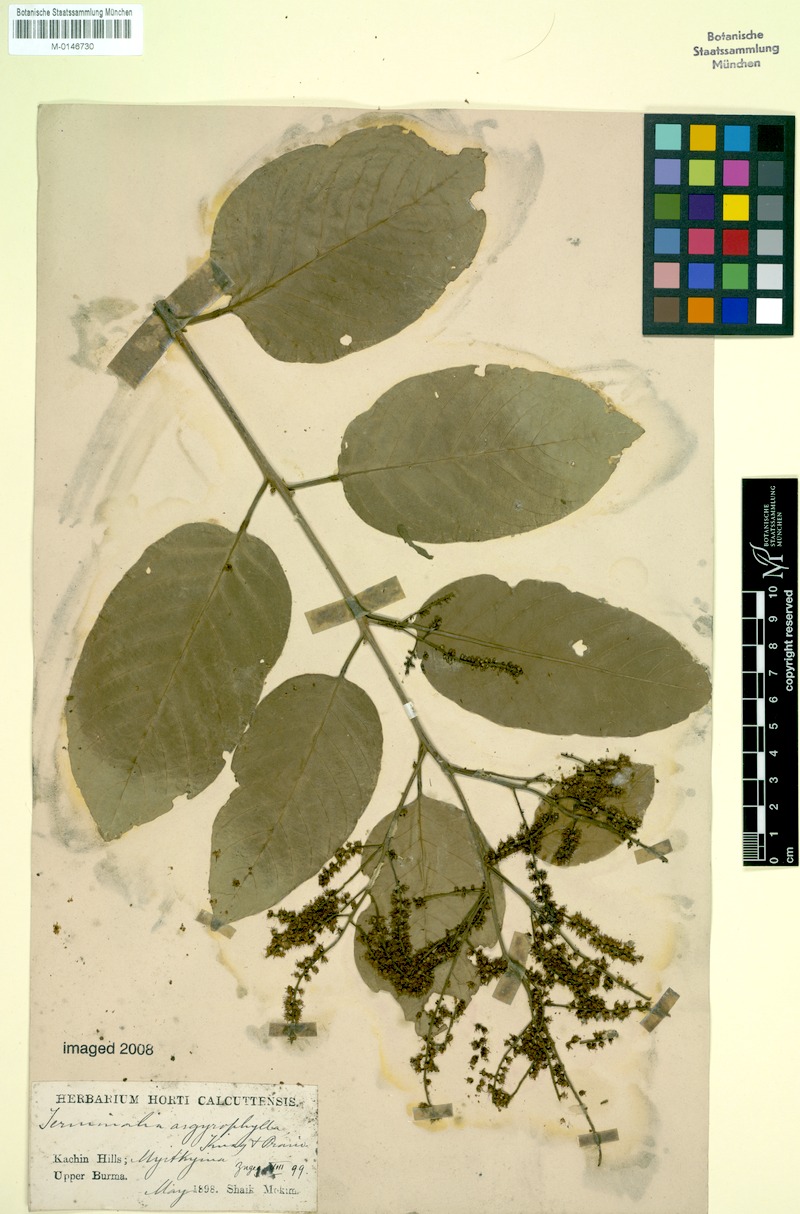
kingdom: Plantae
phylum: Tracheophyta
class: Magnoliopsida
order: Myrtales
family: Combretaceae
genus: Terminalia
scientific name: Terminalia chebula
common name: Myrobalan
